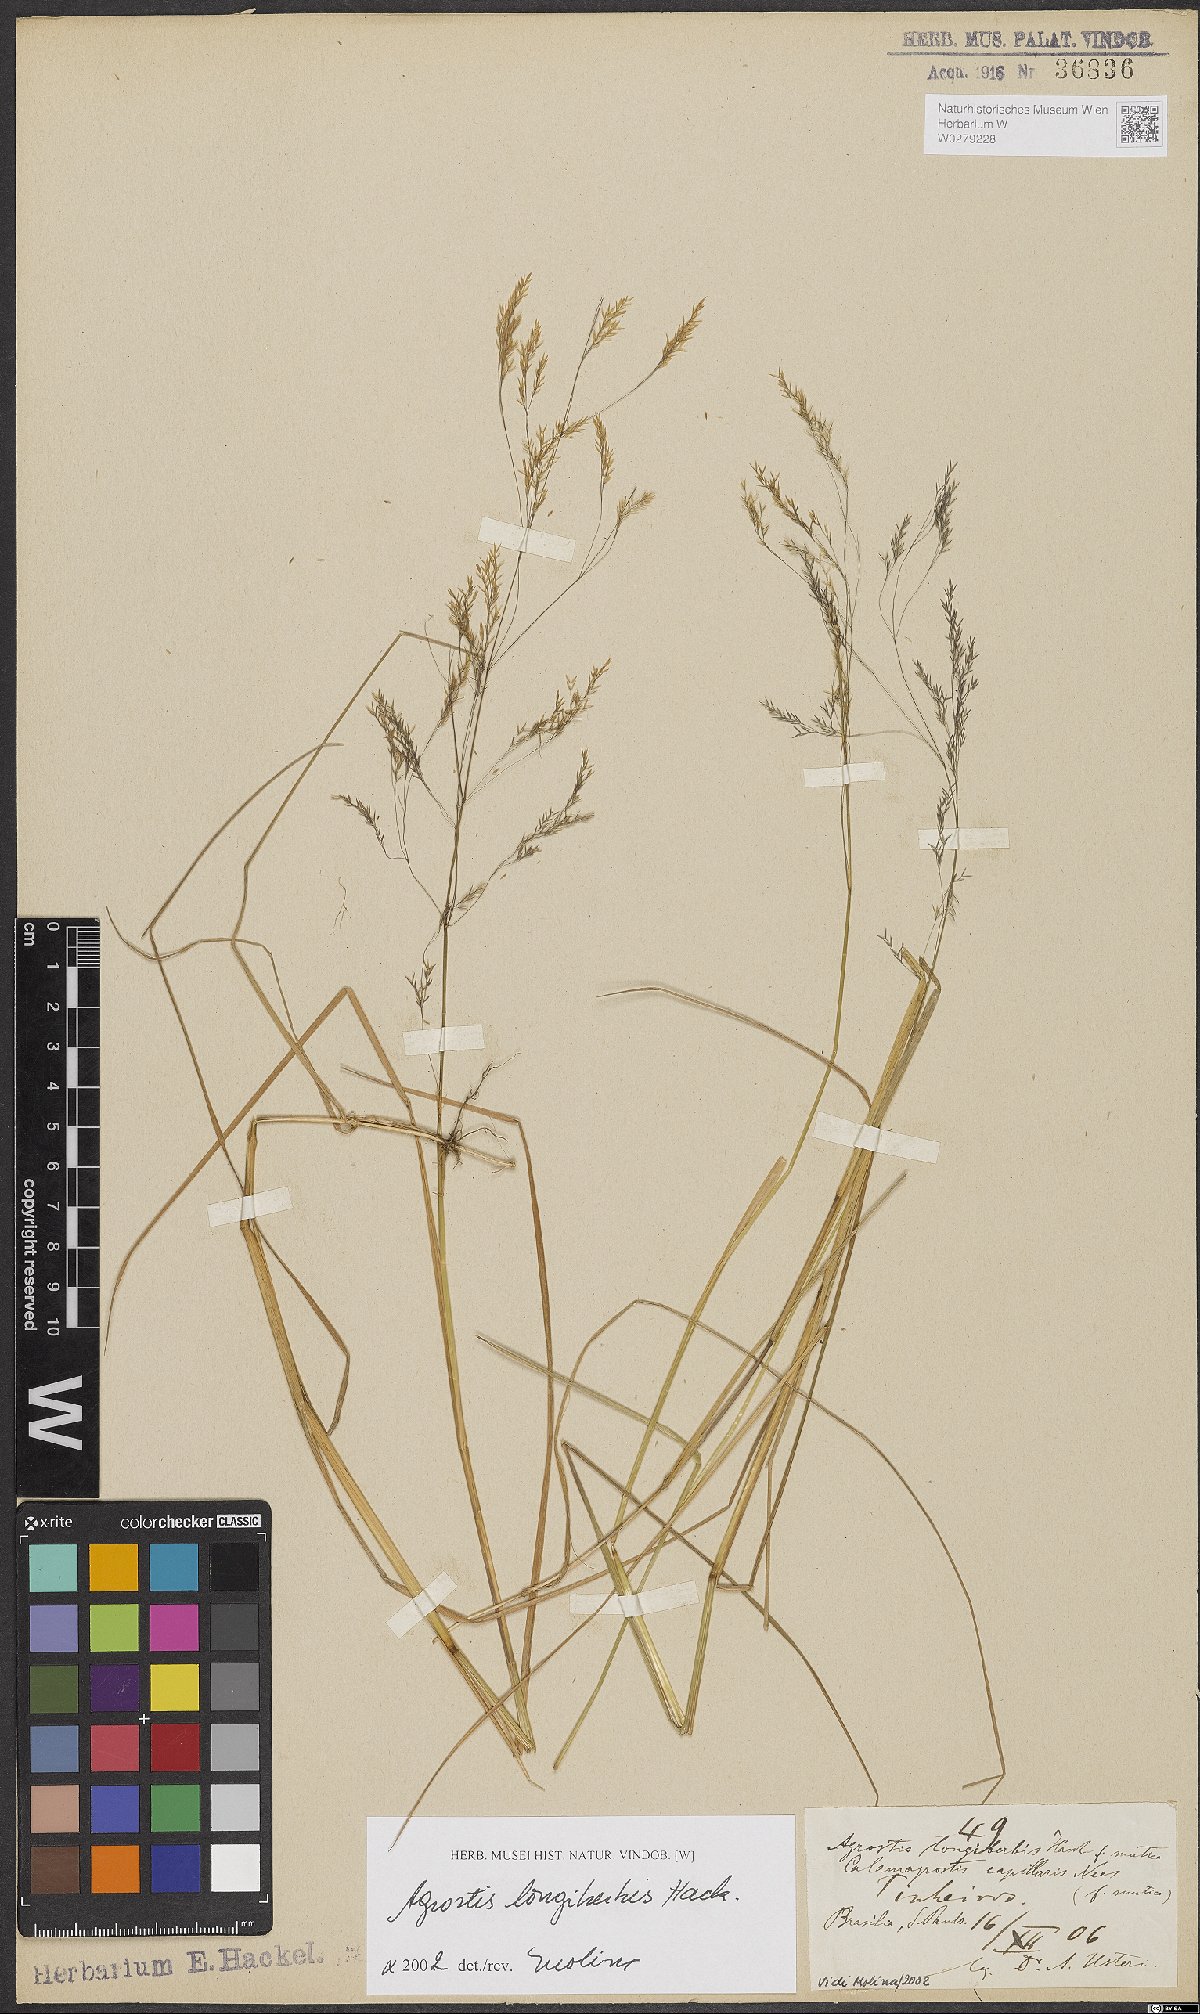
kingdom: Plantae
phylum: Tracheophyta
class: Liliopsida
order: Poales
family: Poaceae
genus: Agrostis
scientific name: Agrostis longiberbis
